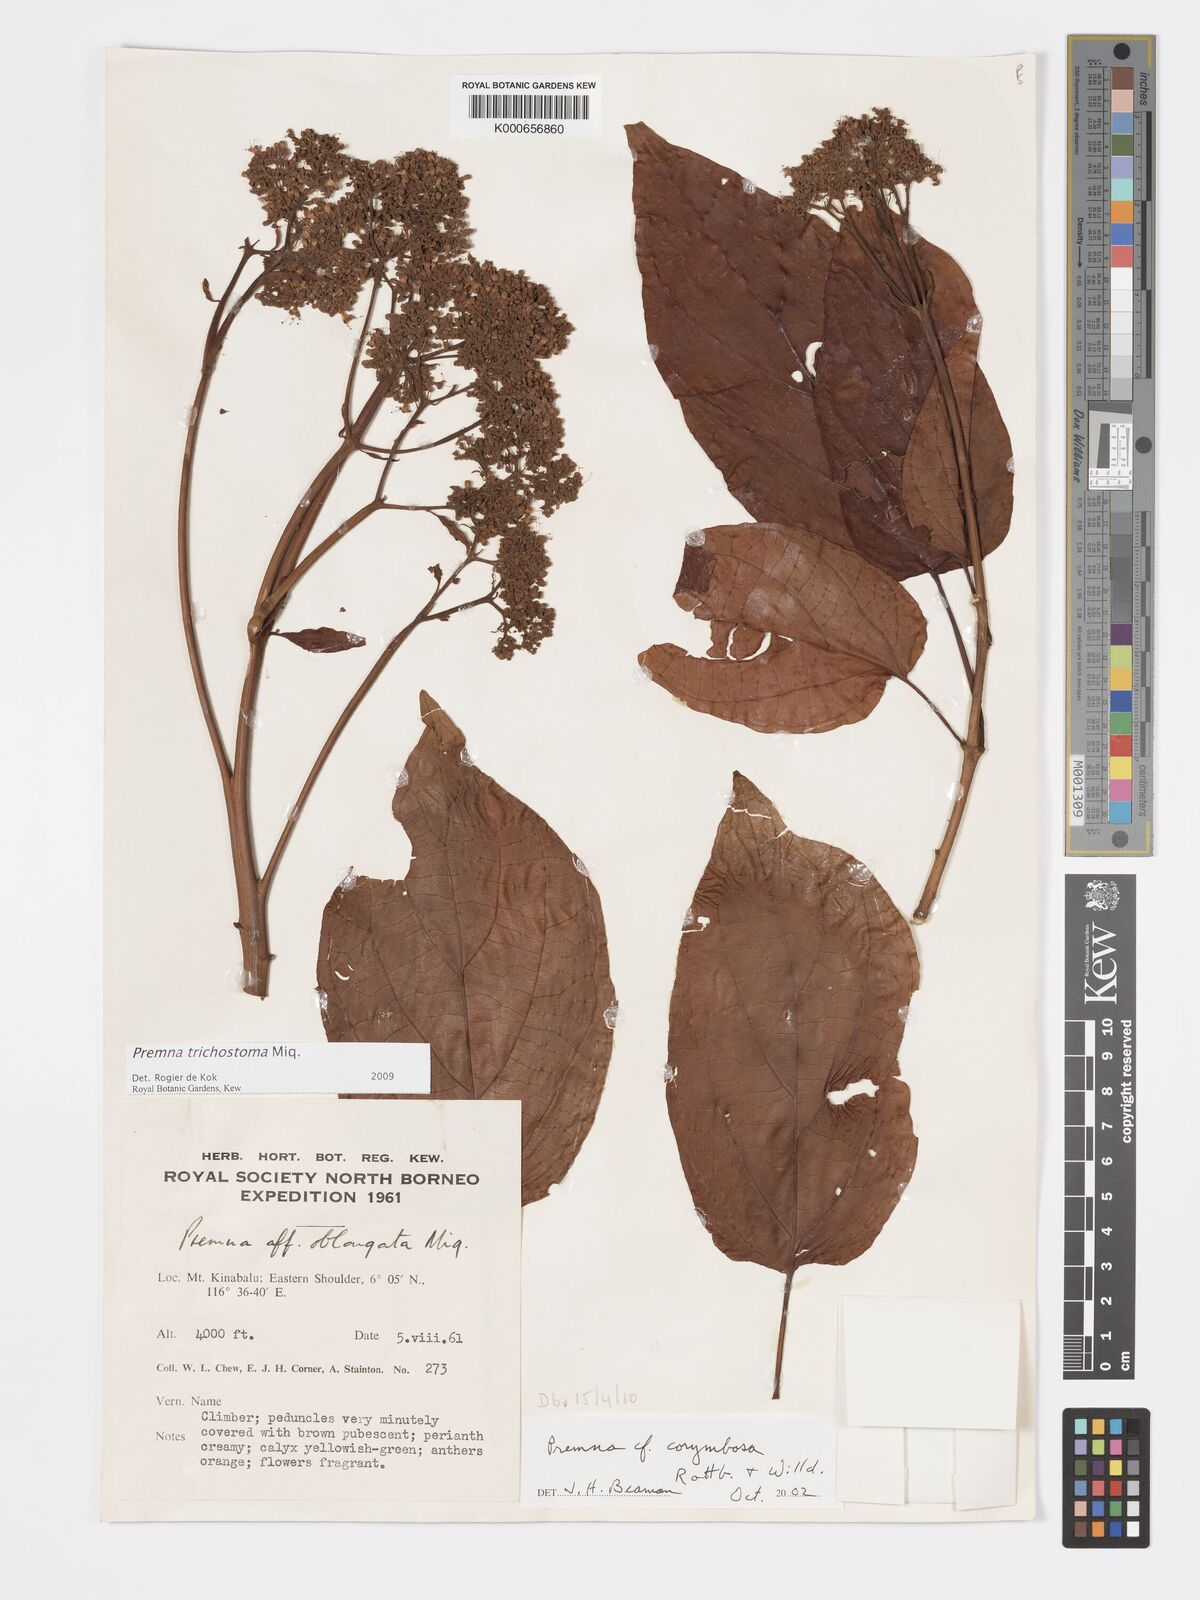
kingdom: Plantae
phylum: Tracheophyta
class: Magnoliopsida
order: Lamiales
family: Lamiaceae
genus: Premna
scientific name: Premna trichostoma
